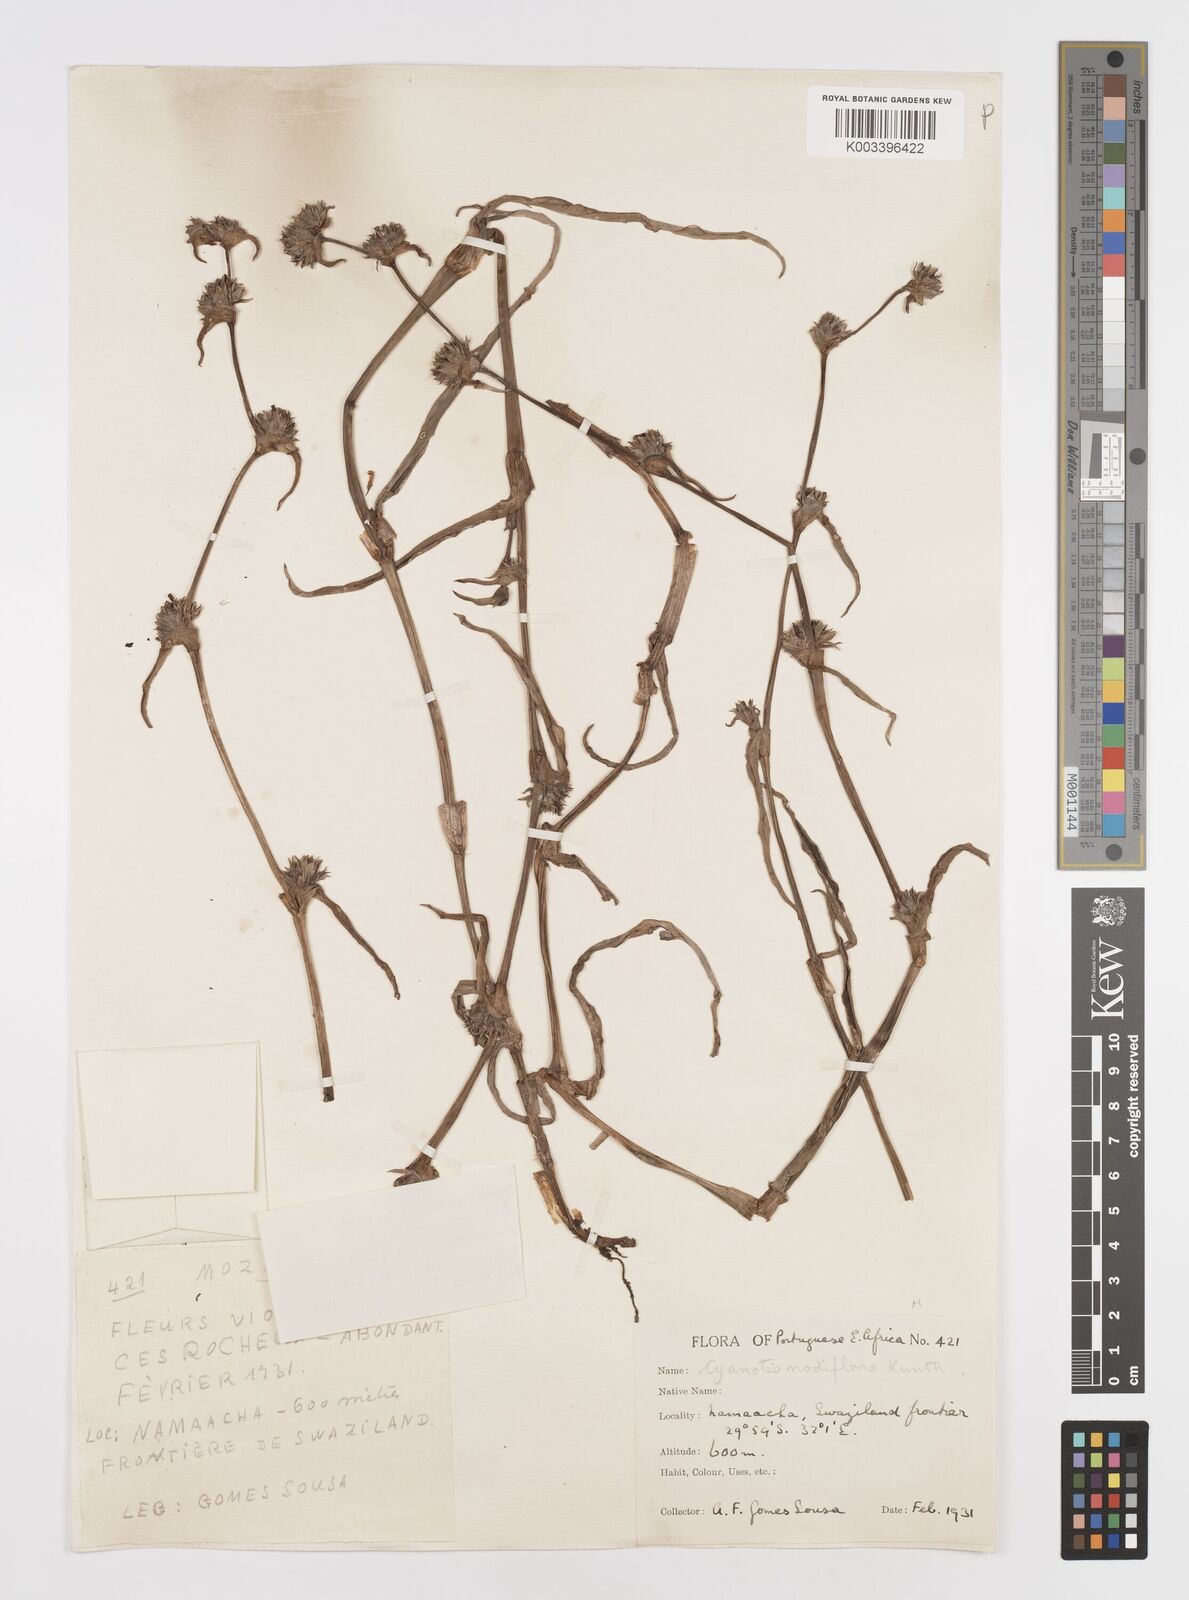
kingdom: Plantae
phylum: Tracheophyta
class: Liliopsida
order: Commelinales
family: Commelinaceae
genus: Cyanotis
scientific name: Cyanotis speciosa
